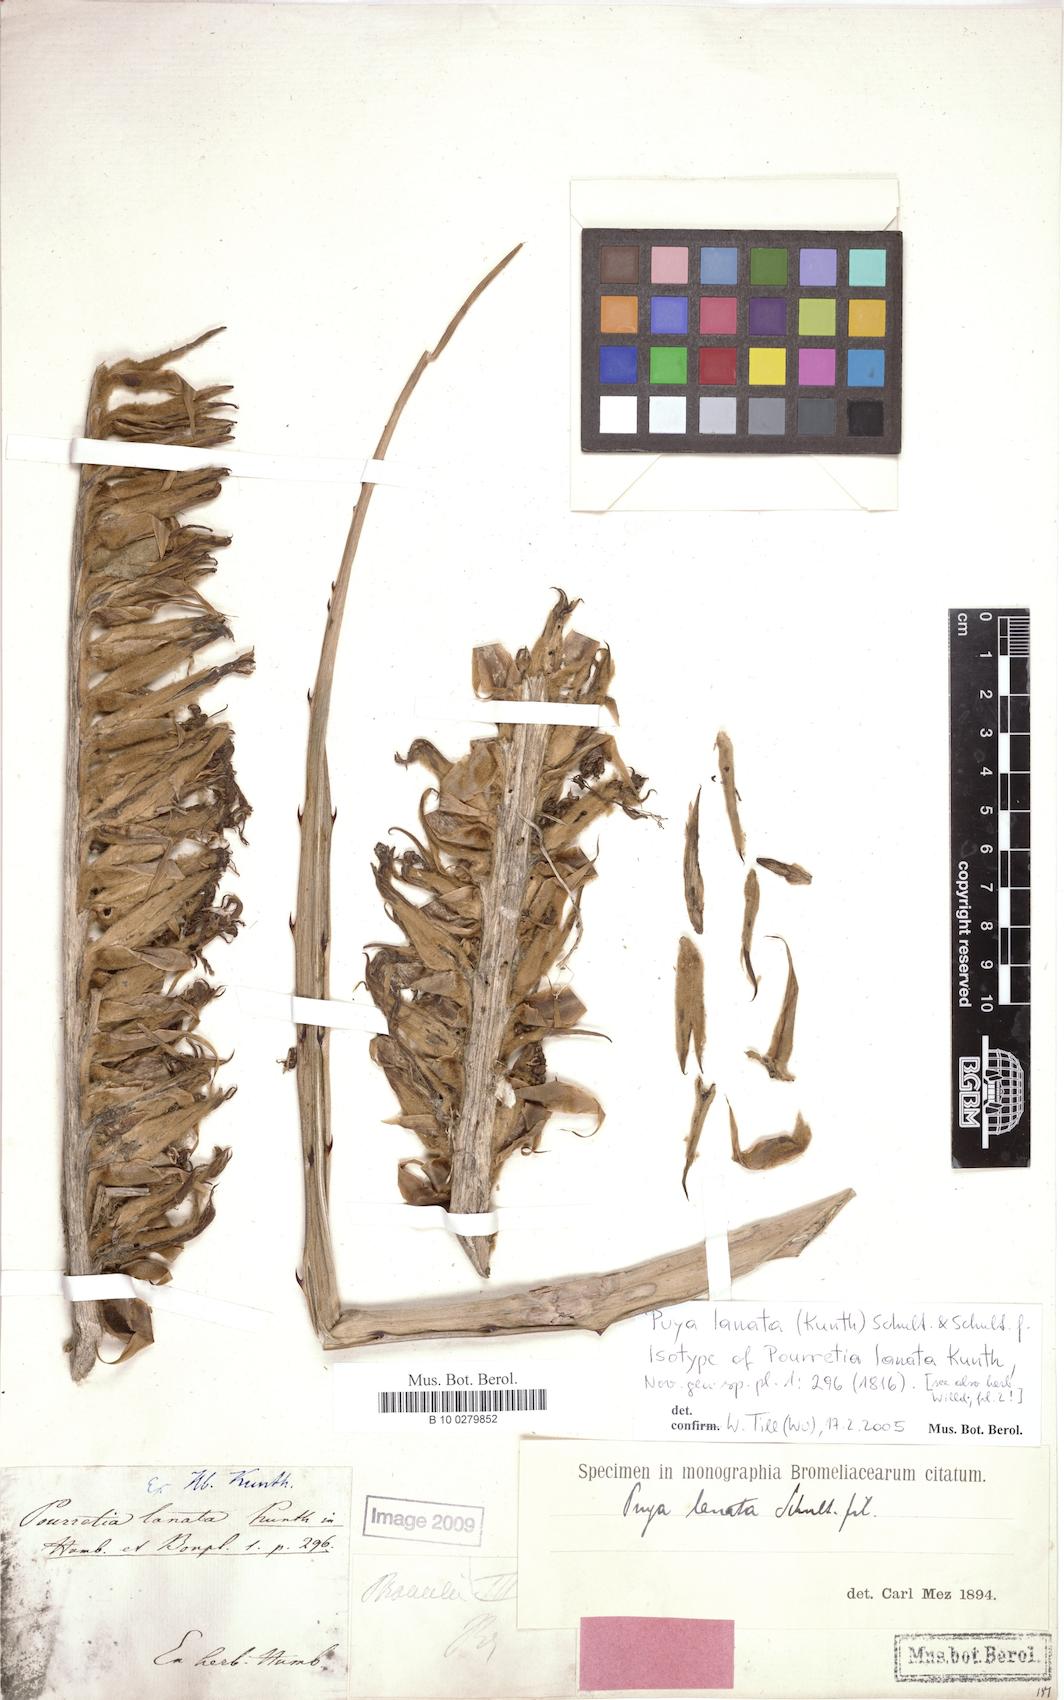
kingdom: Plantae
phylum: Tracheophyta
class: Liliopsida
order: Poales
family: Bromeliaceae
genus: Puya
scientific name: Puya lanata
